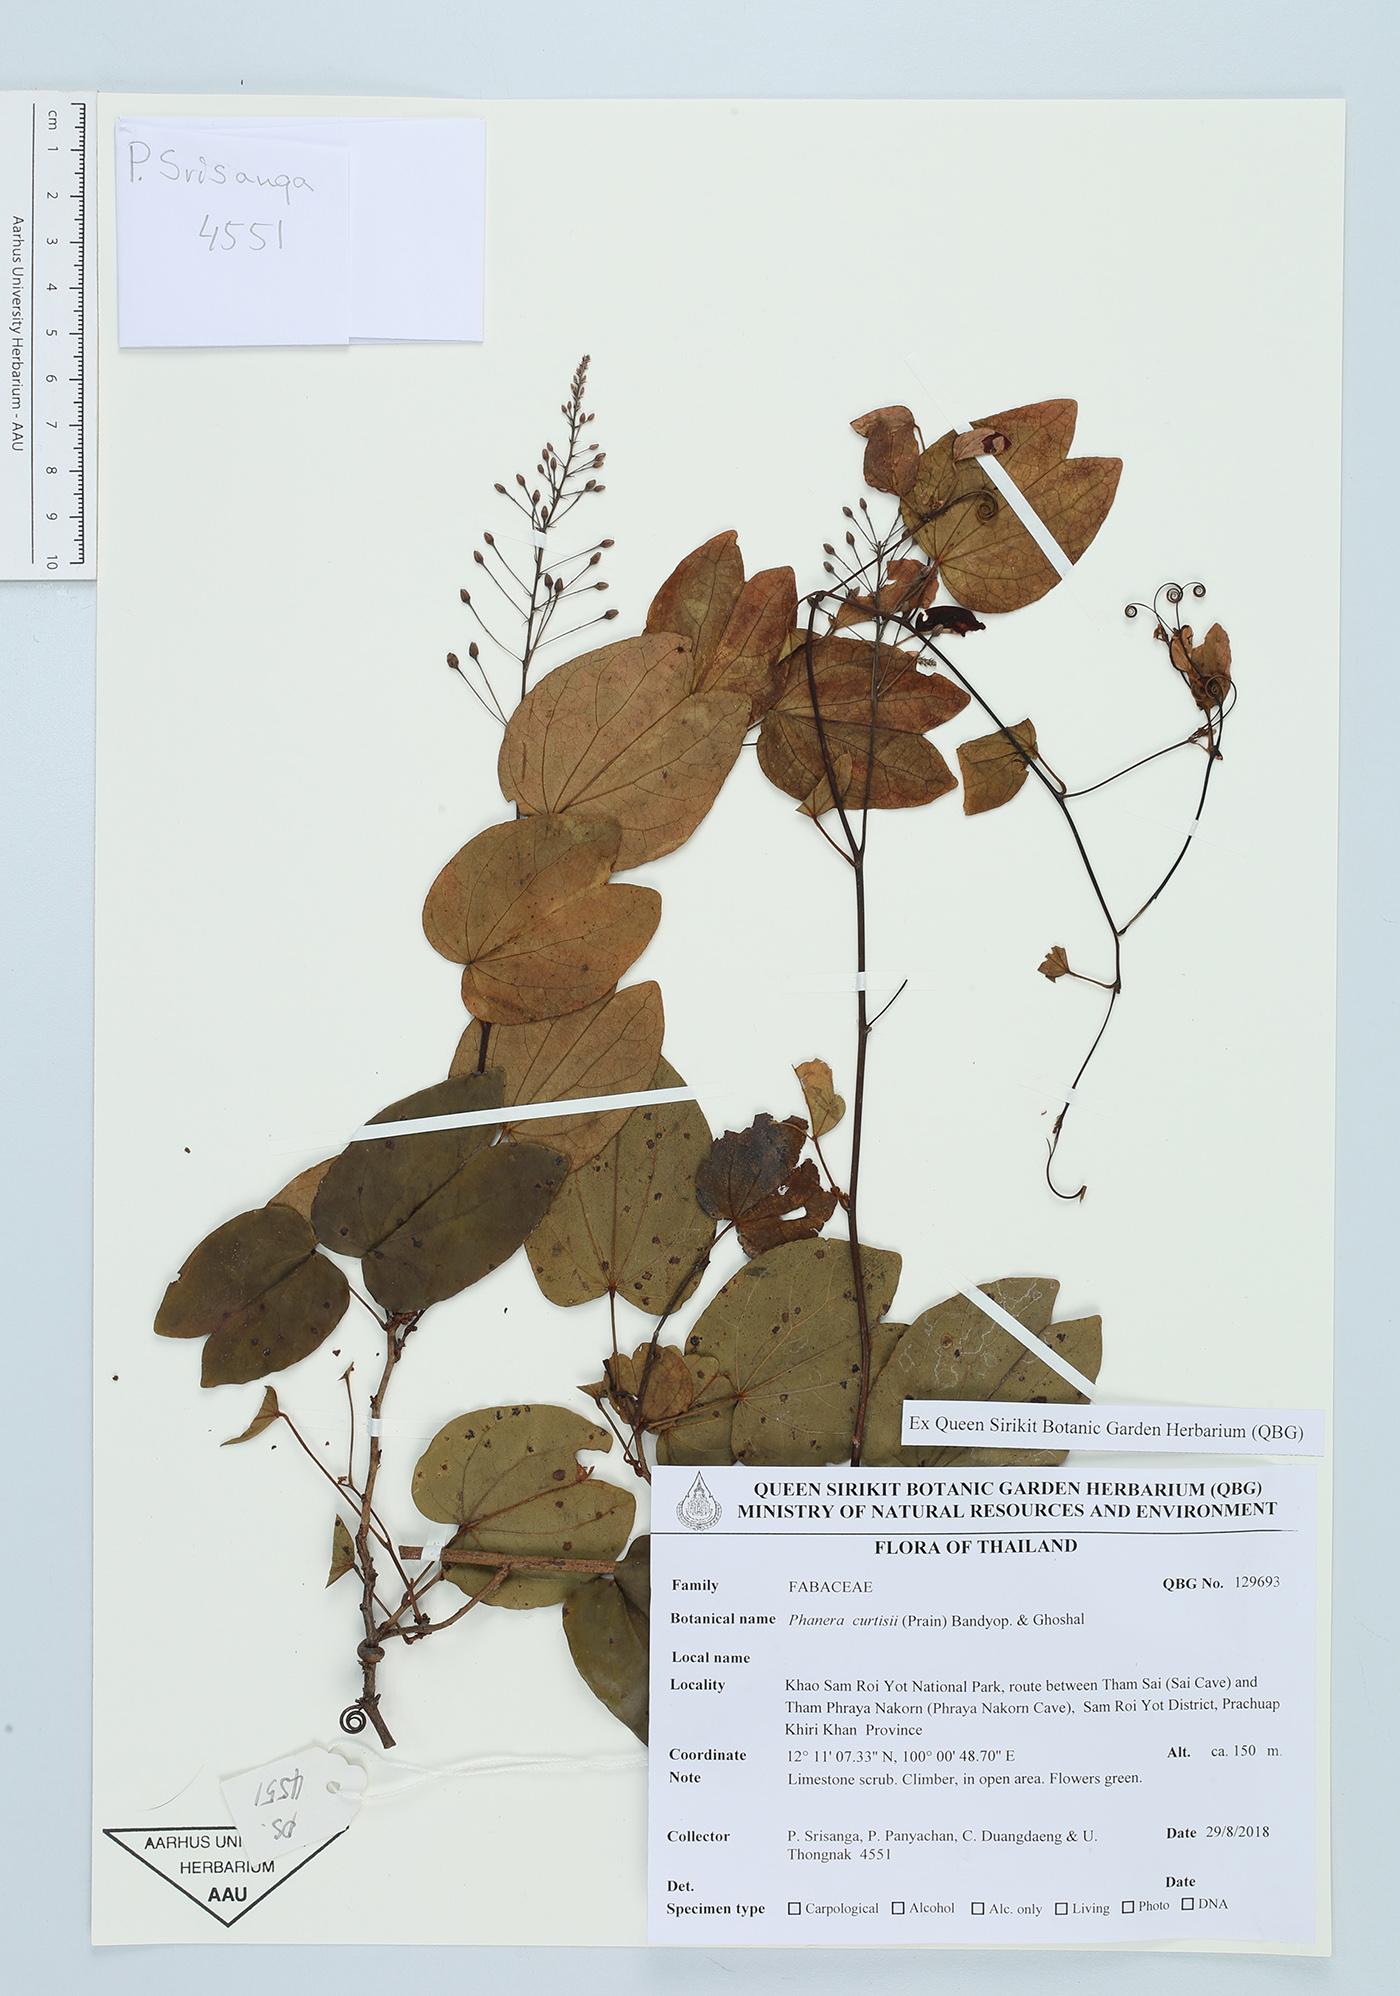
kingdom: Plantae
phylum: Tracheophyta
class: Magnoliopsida
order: Fabales
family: Fabaceae
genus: Phanera
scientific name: Phanera curtisii
